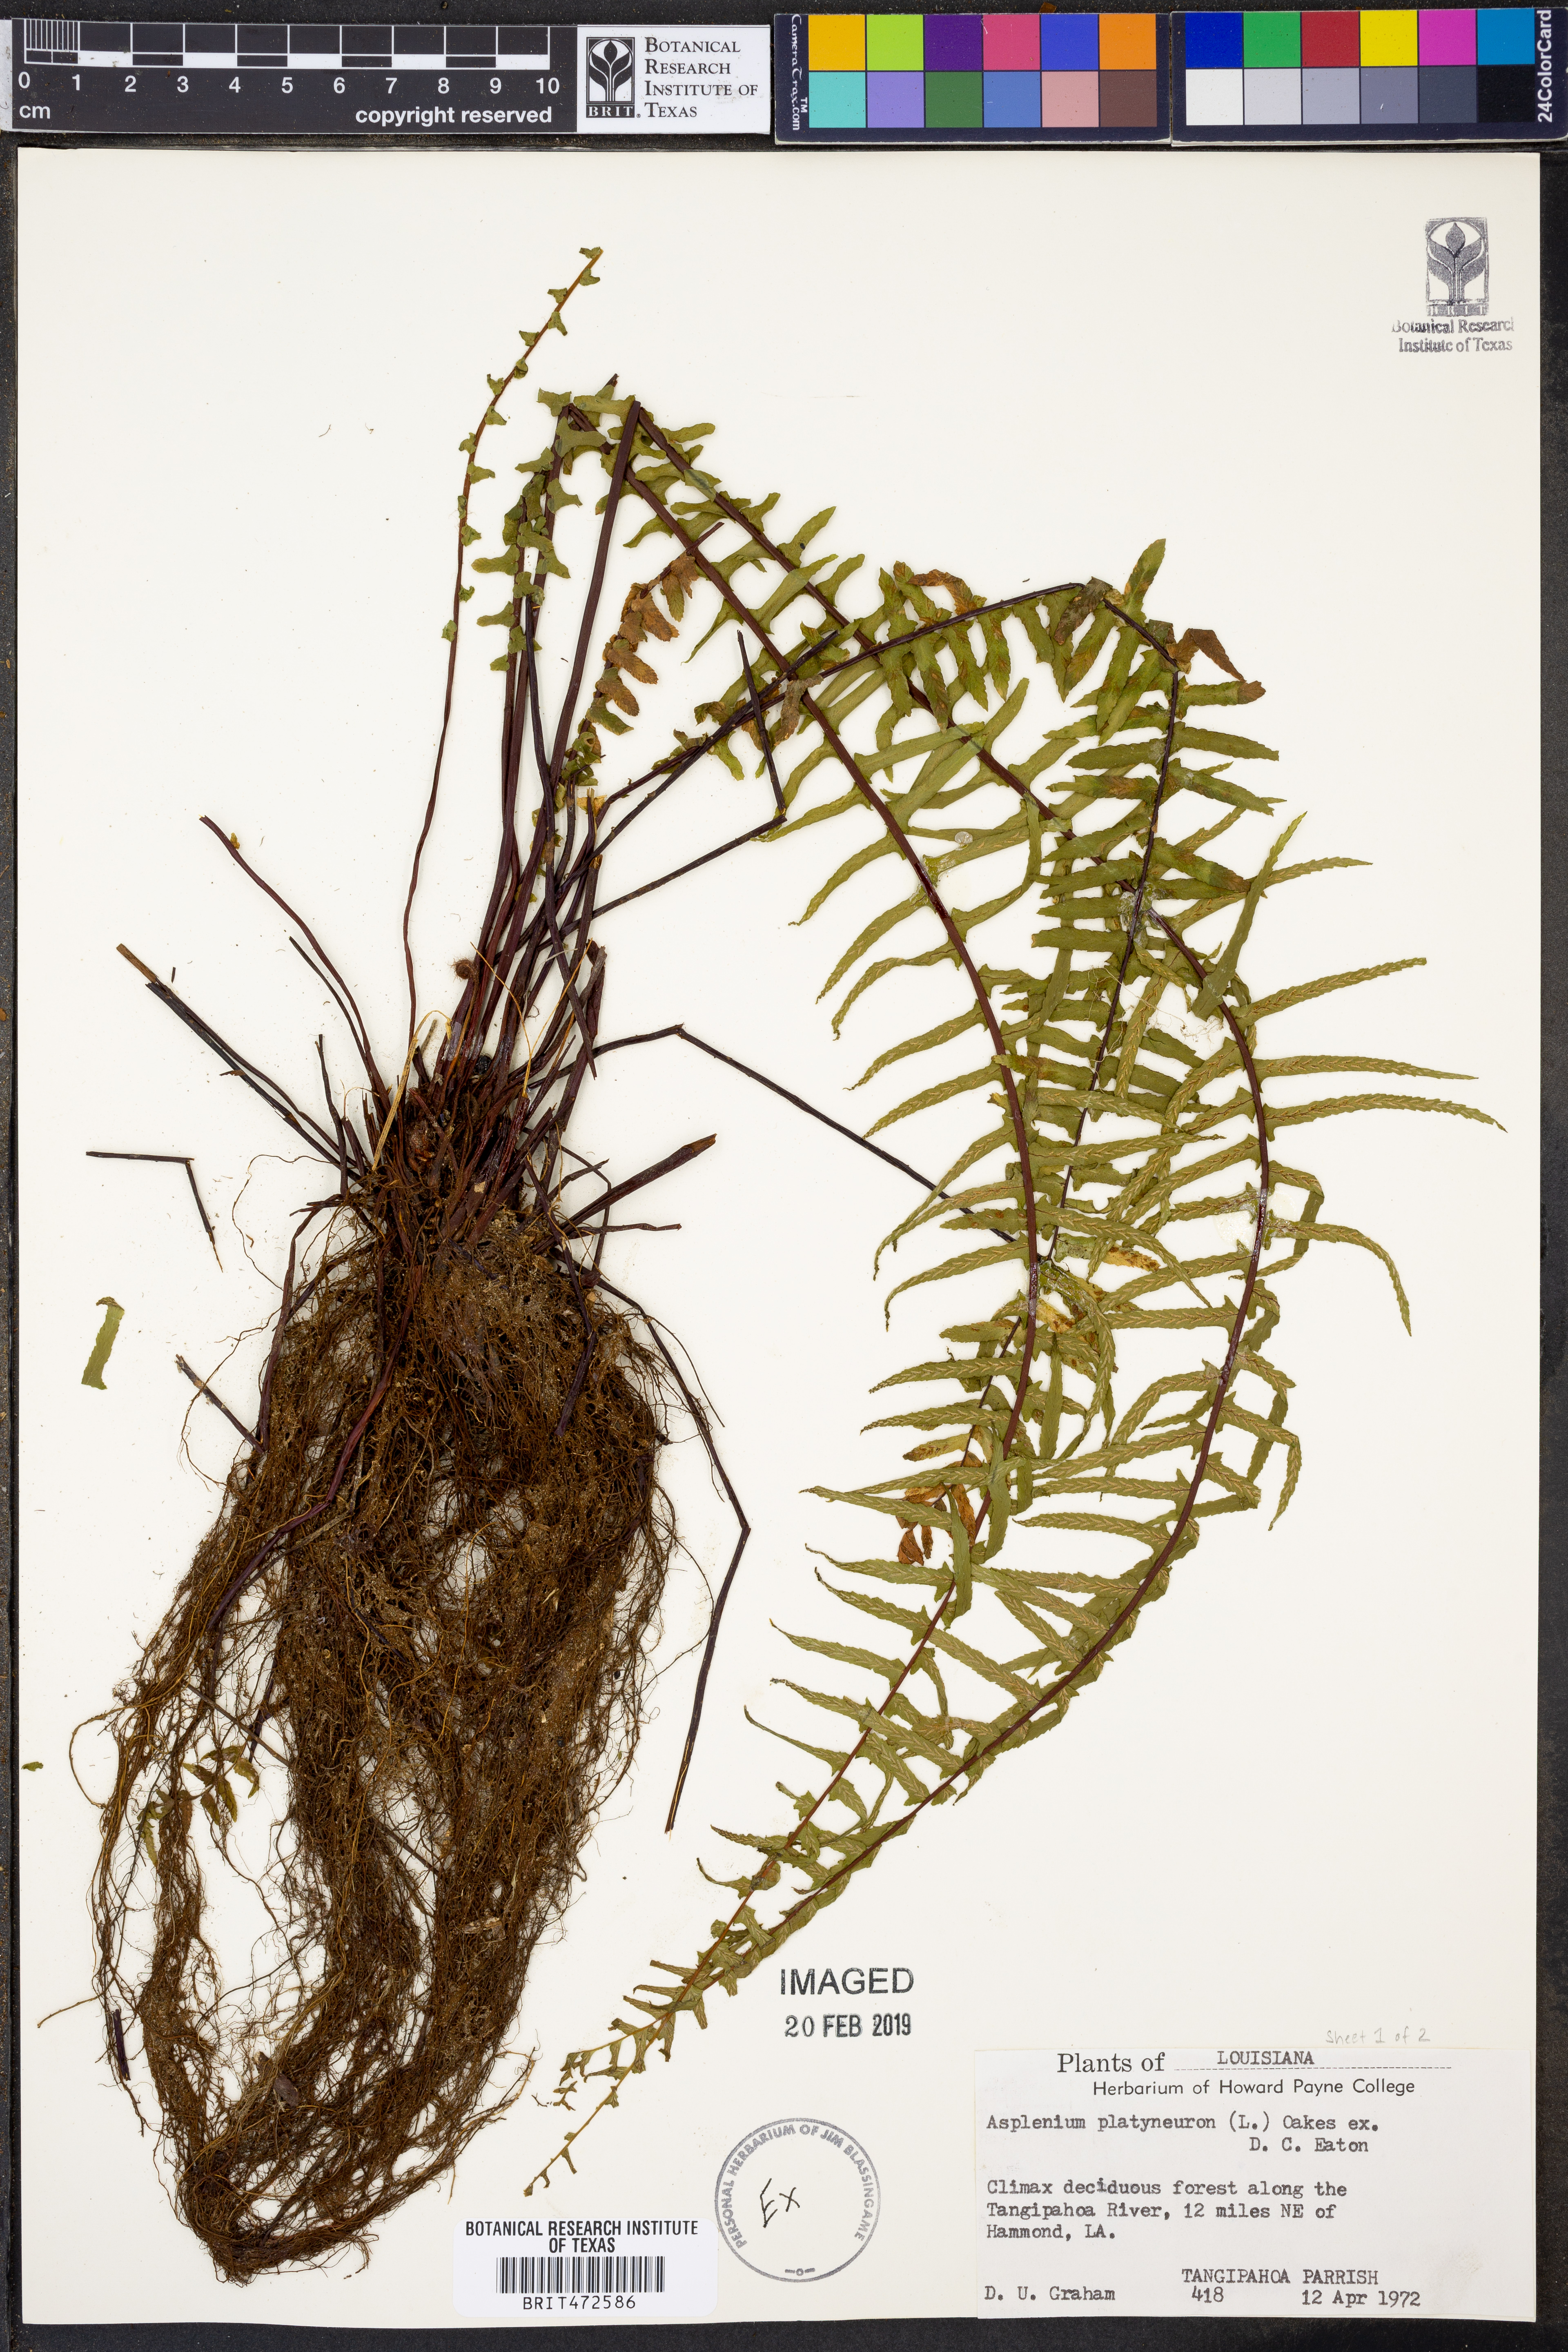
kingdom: Plantae
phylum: Tracheophyta
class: Polypodiopsida
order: Polypodiales
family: Aspleniaceae
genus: Asplenium
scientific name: Asplenium platyneuron
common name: Ebony spleenwort
